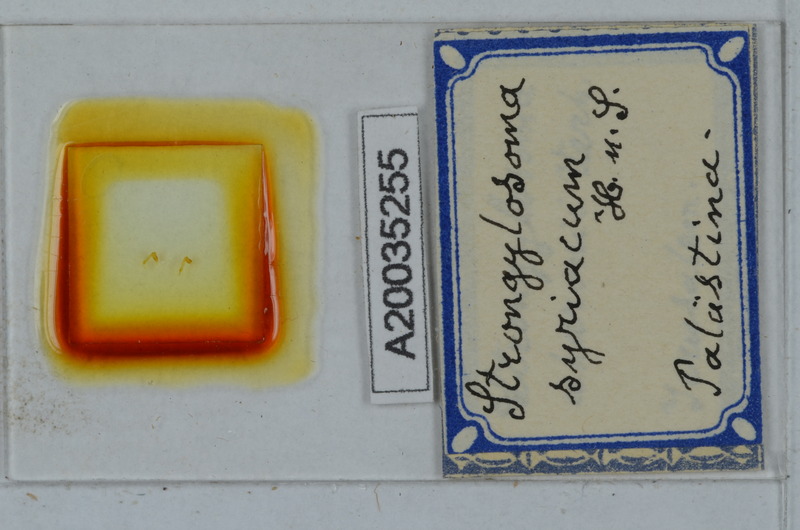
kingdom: Animalia
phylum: Arthropoda
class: Diplopoda
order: Polydesmida
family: Paradoxosomatidae
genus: Tetrarthrosoma
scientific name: Tetrarthrosoma syriacum
